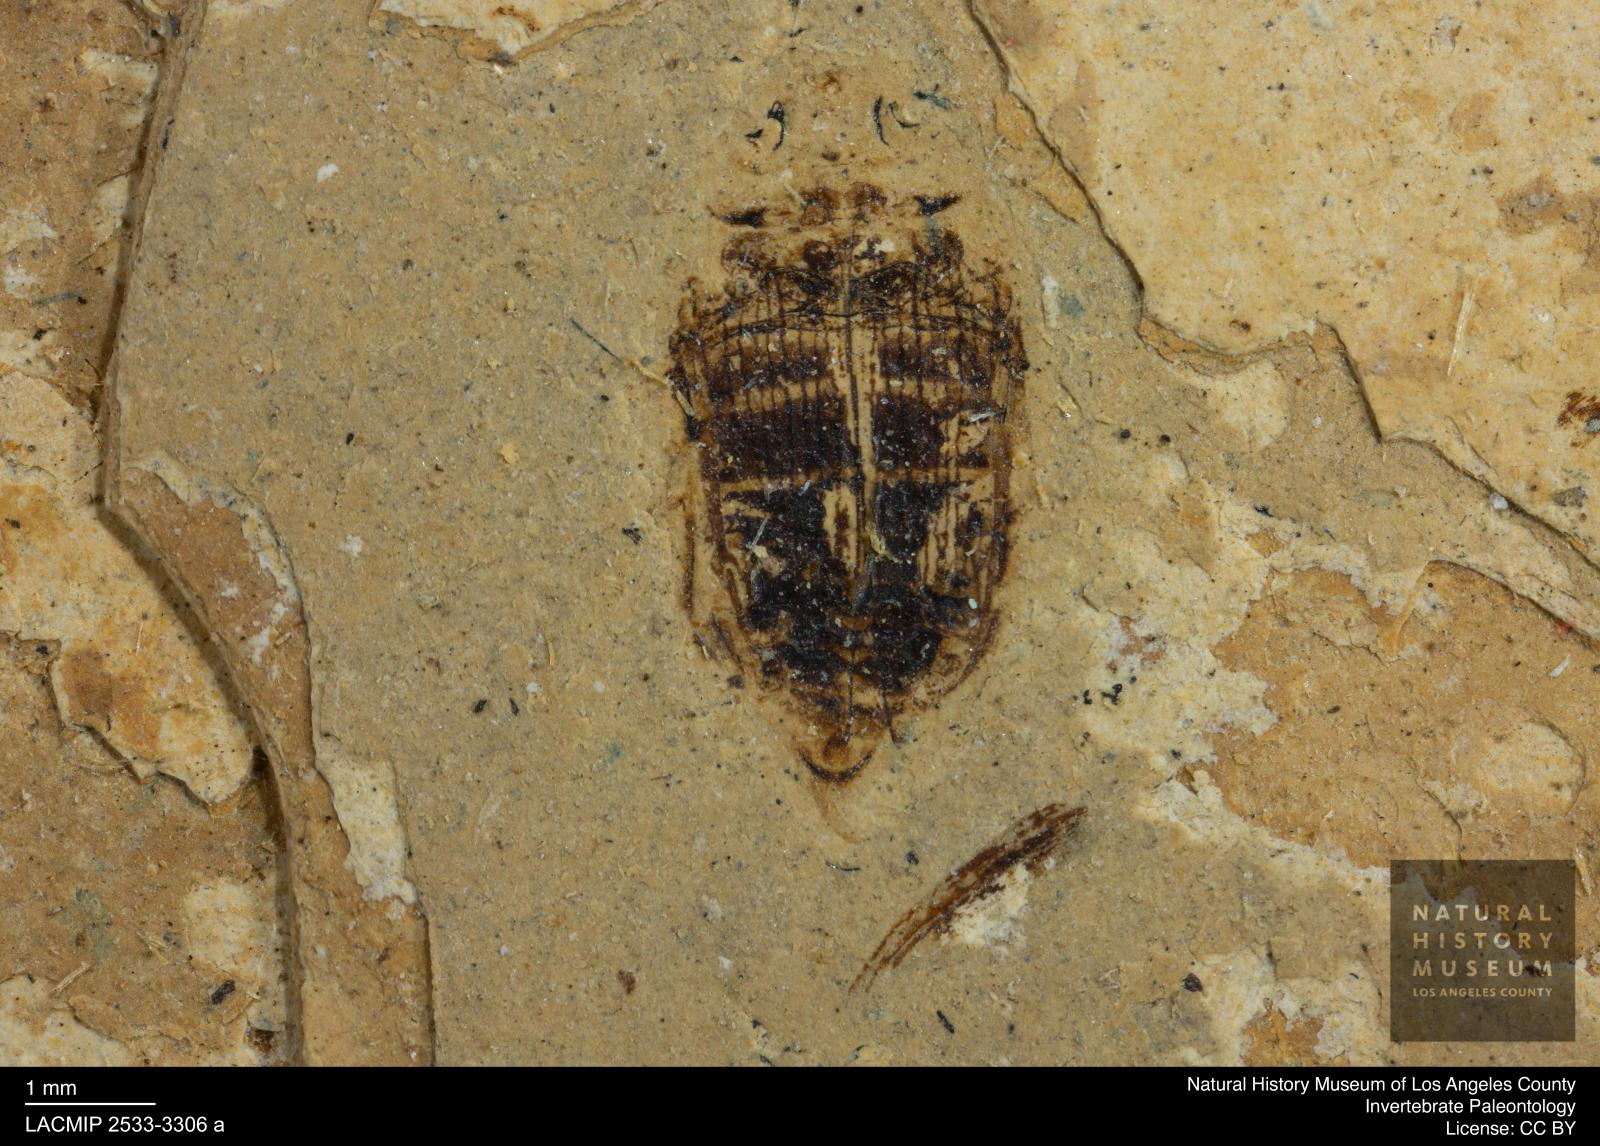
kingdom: Animalia
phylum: Arthropoda
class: Insecta
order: Coleoptera
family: Dytiscidae
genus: Laccophilus
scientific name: Laccophilus Palaeogyrinus strigatus
